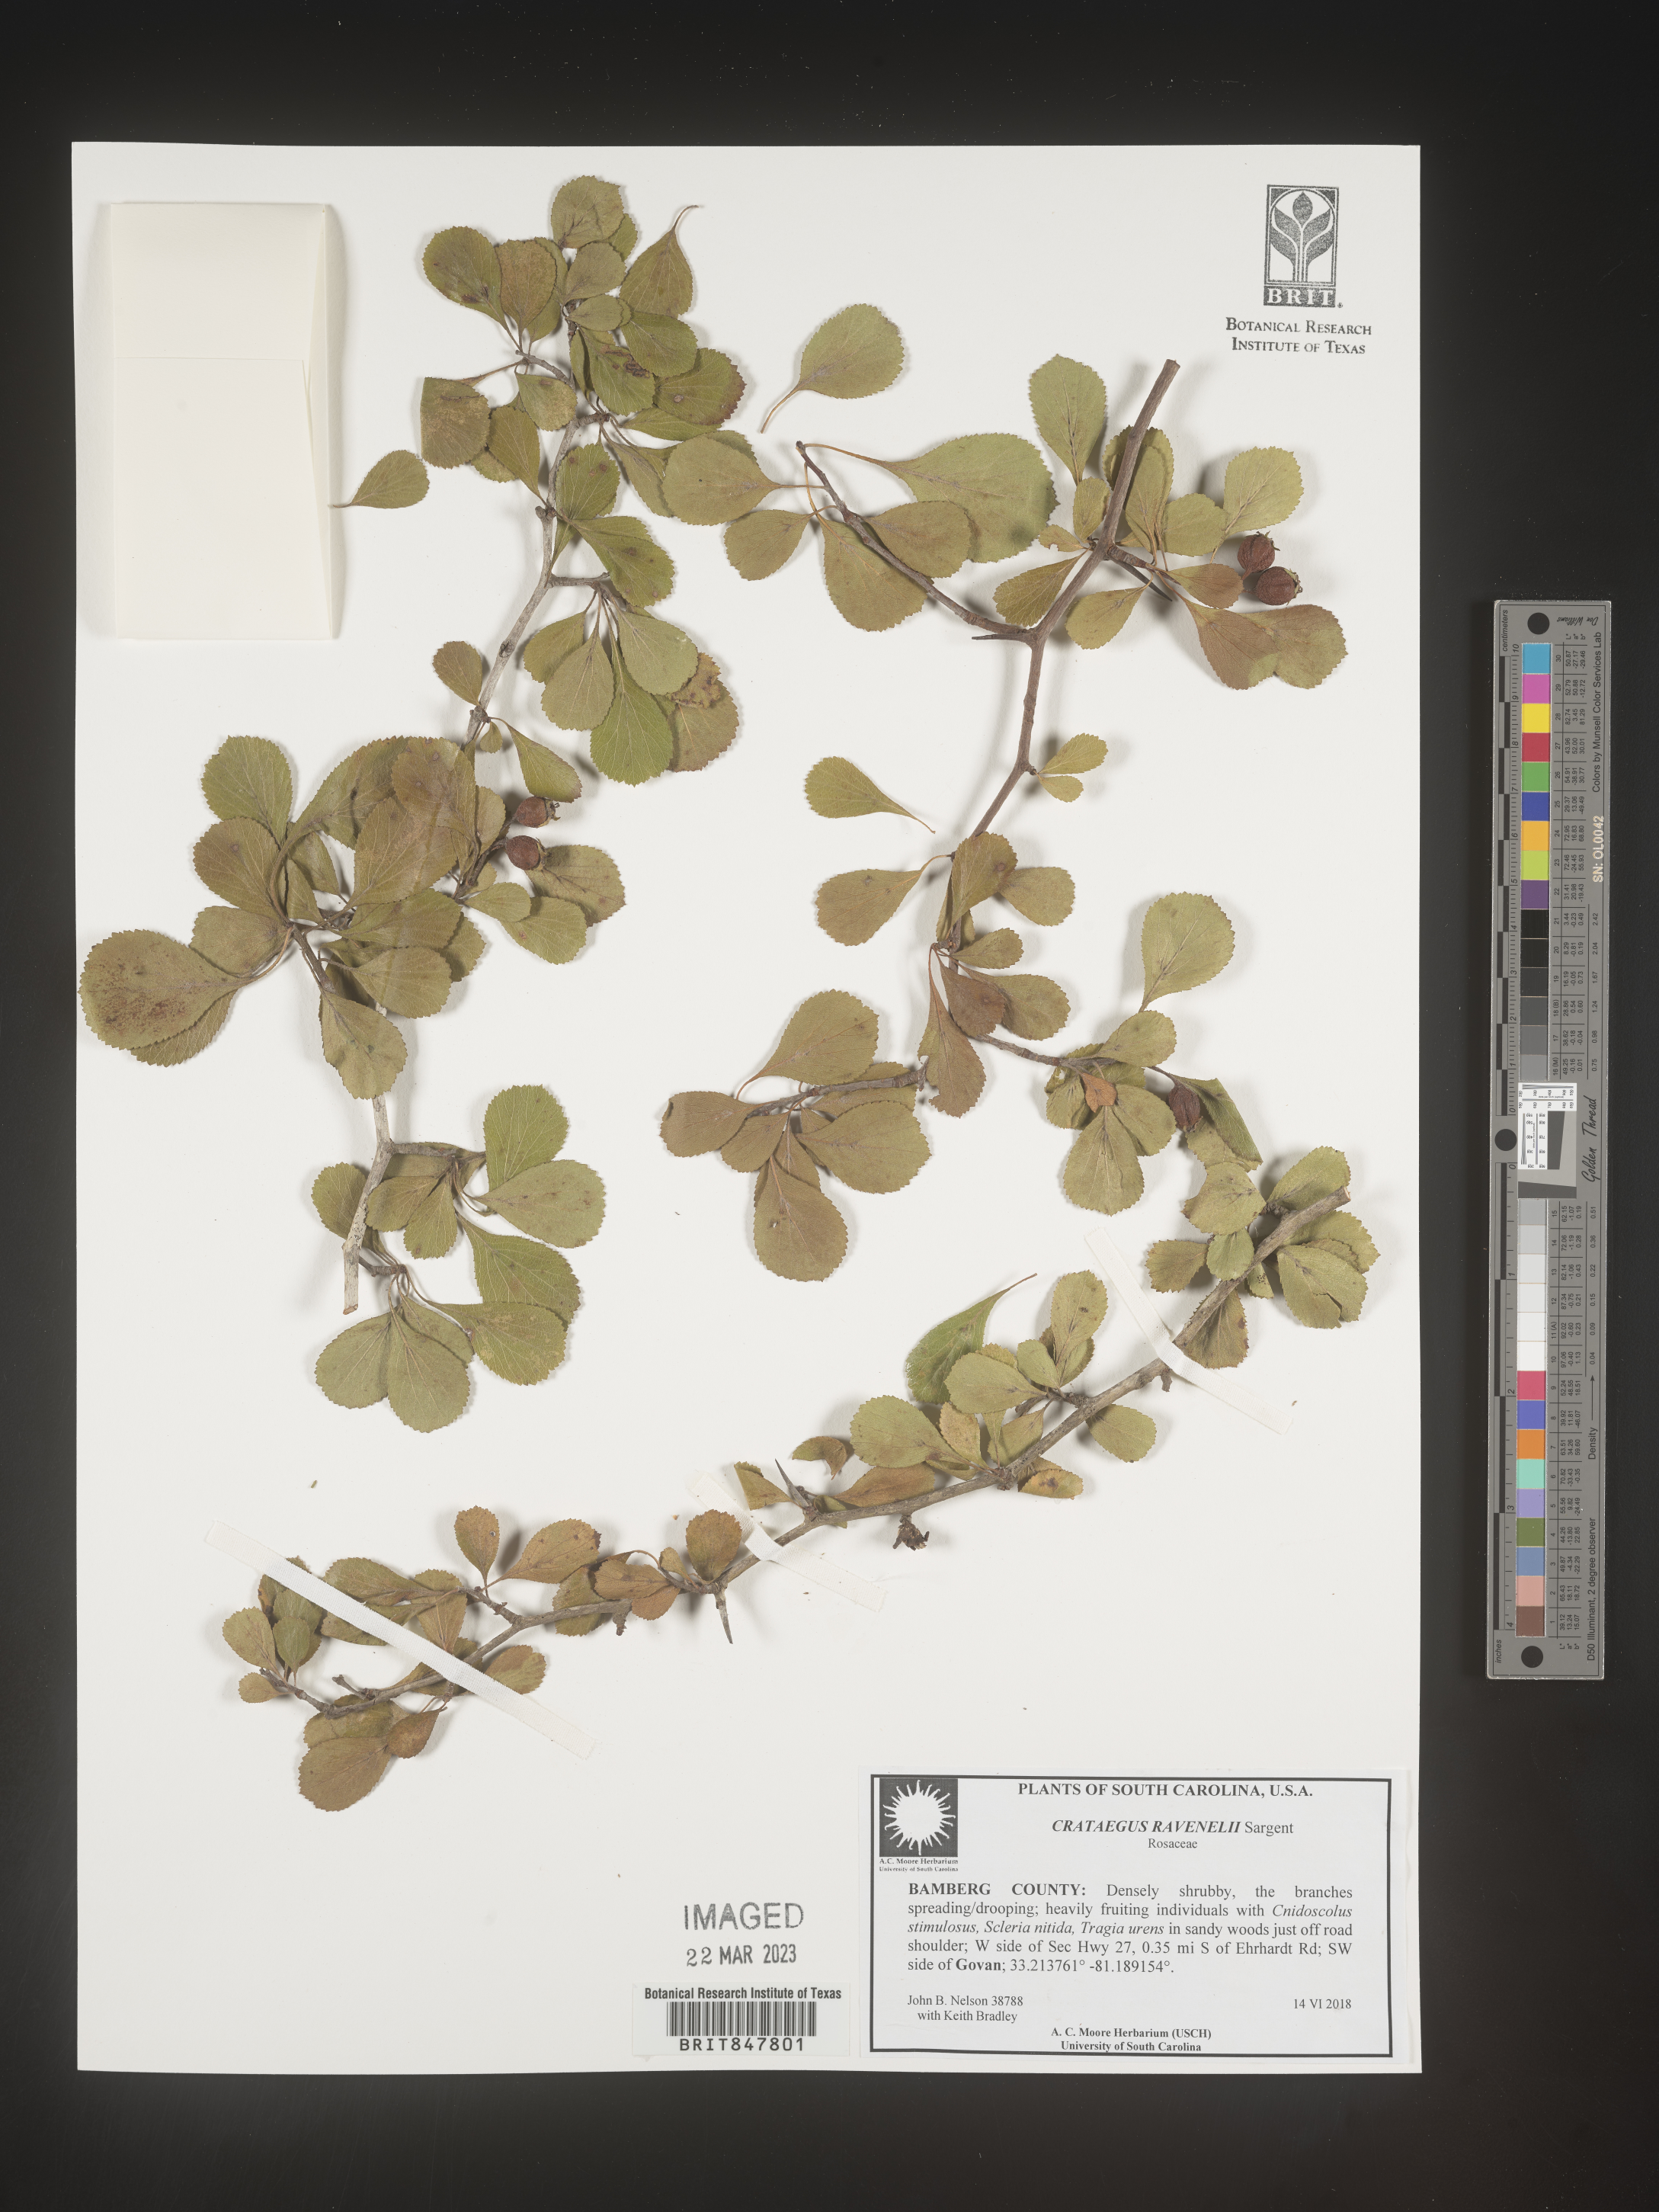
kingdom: Plantae
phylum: Tracheophyta
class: Magnoliopsida
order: Rosales
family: Rosaceae
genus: Crataegus
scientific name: Crataegus alabamensis
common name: Alabama hawthorn
